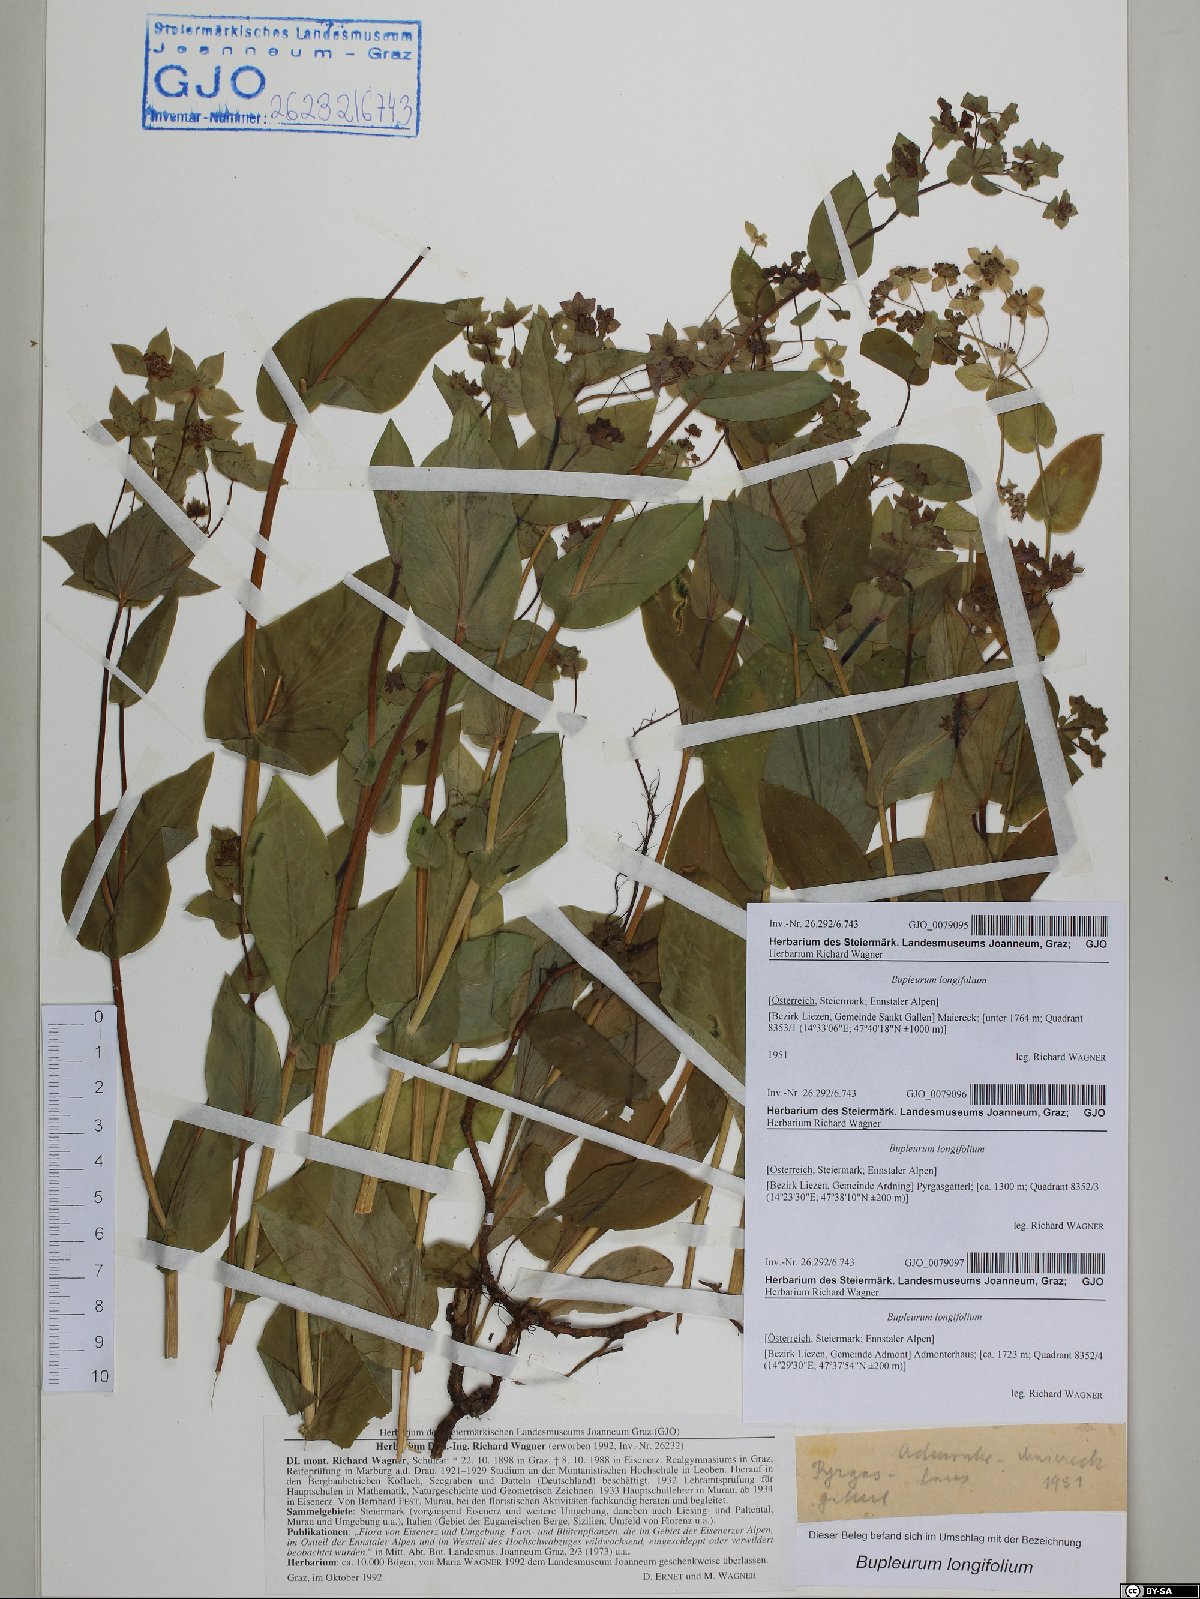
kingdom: Plantae
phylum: Tracheophyta
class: Magnoliopsida
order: Apiales
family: Apiaceae
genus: Bupleurum
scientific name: Bupleurum longifolium
